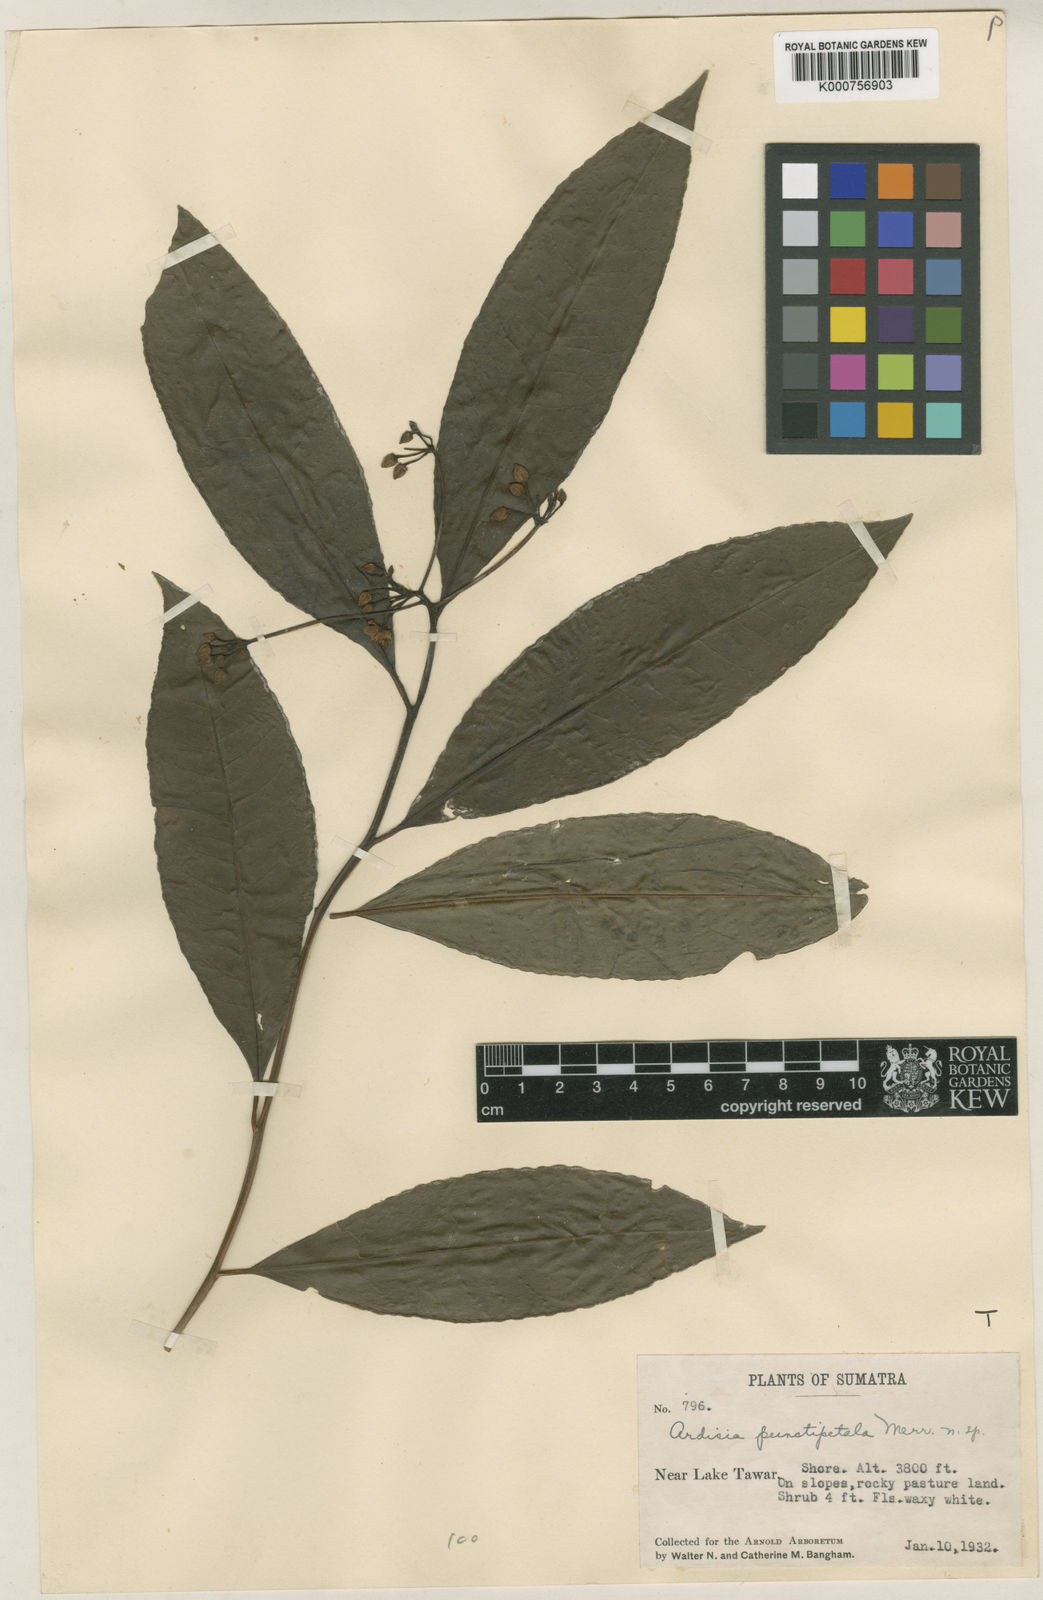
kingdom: Plantae
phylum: Tracheophyta
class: Magnoliopsida
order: Ericales
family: Primulaceae
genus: Ardisia
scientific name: Ardisia polysticta
